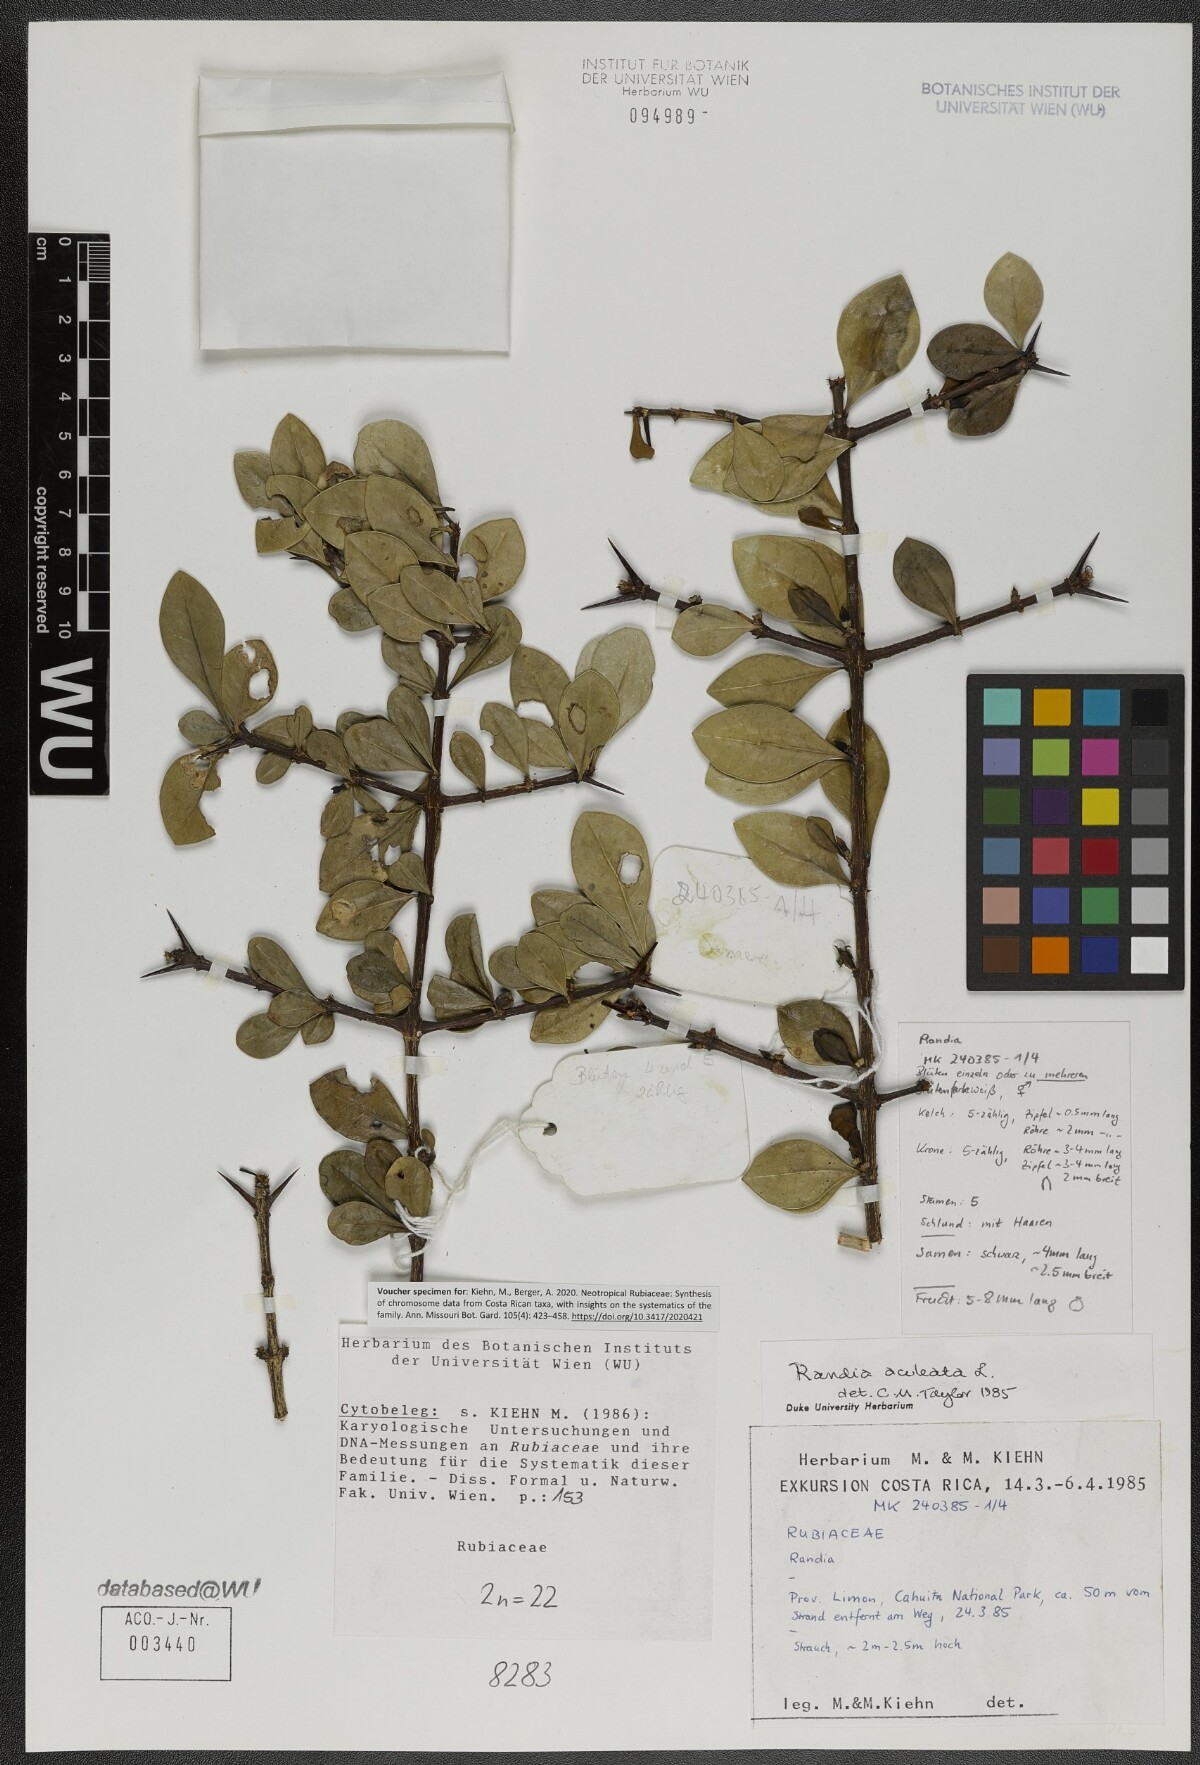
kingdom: Plantae
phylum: Tracheophyta
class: Magnoliopsida
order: Gentianales
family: Rubiaceae
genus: Randia
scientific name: Randia aculeata
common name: Inkberry
